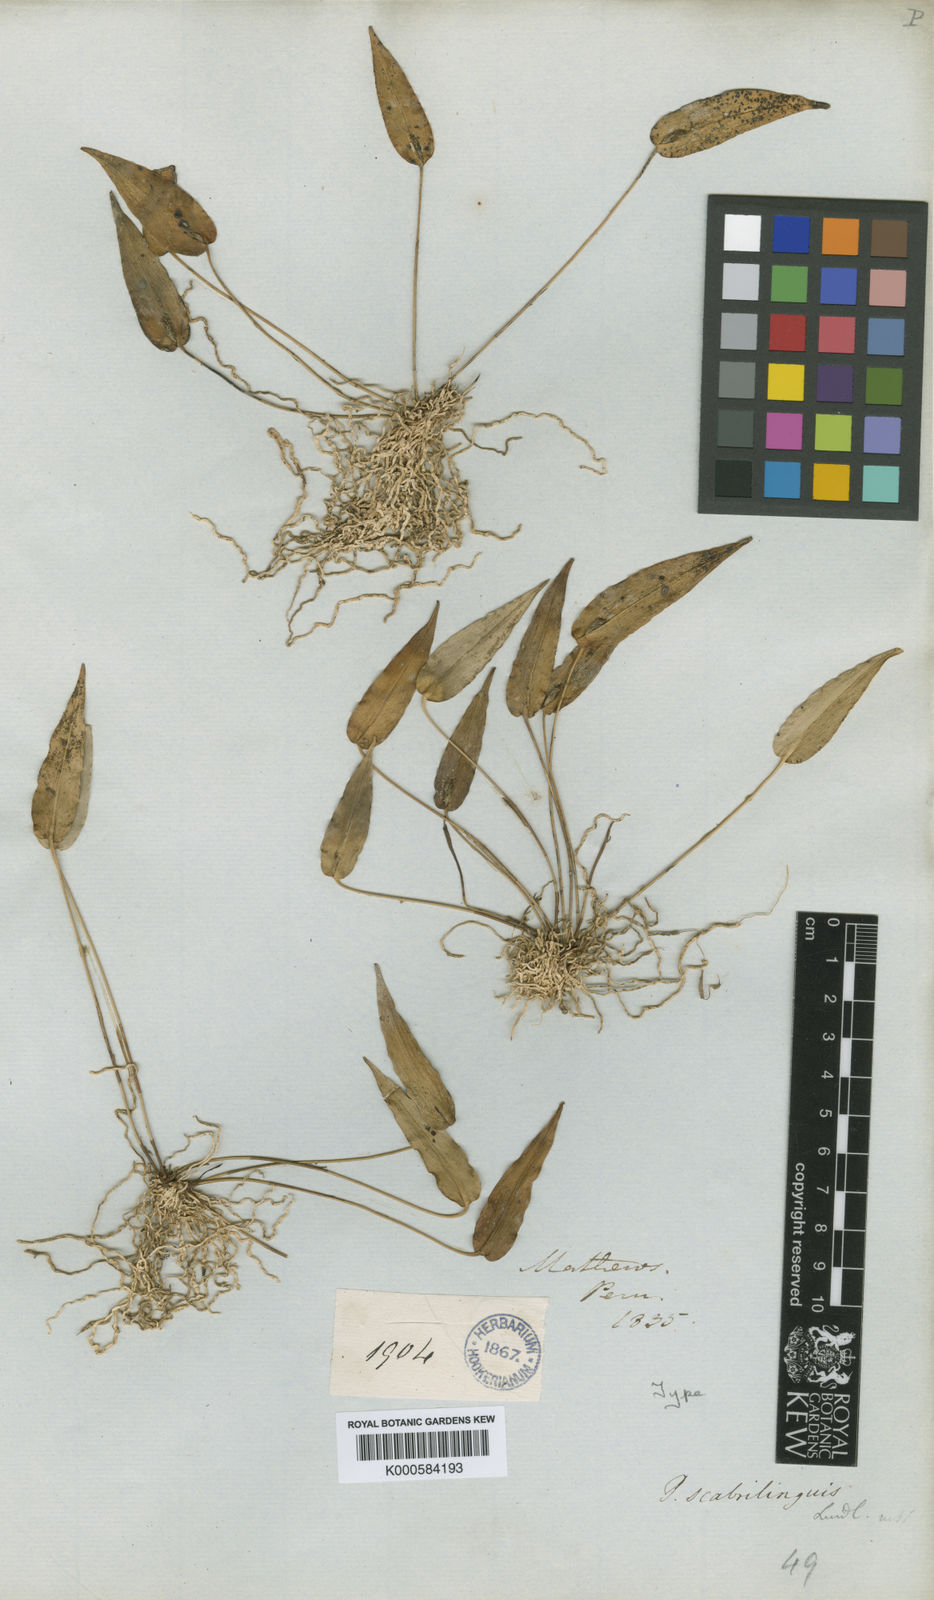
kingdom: Plantae
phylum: Tracheophyta
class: Liliopsida
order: Asparagales
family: Orchidaceae
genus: Pleurothallis
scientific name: Pleurothallis scabrilinguis
